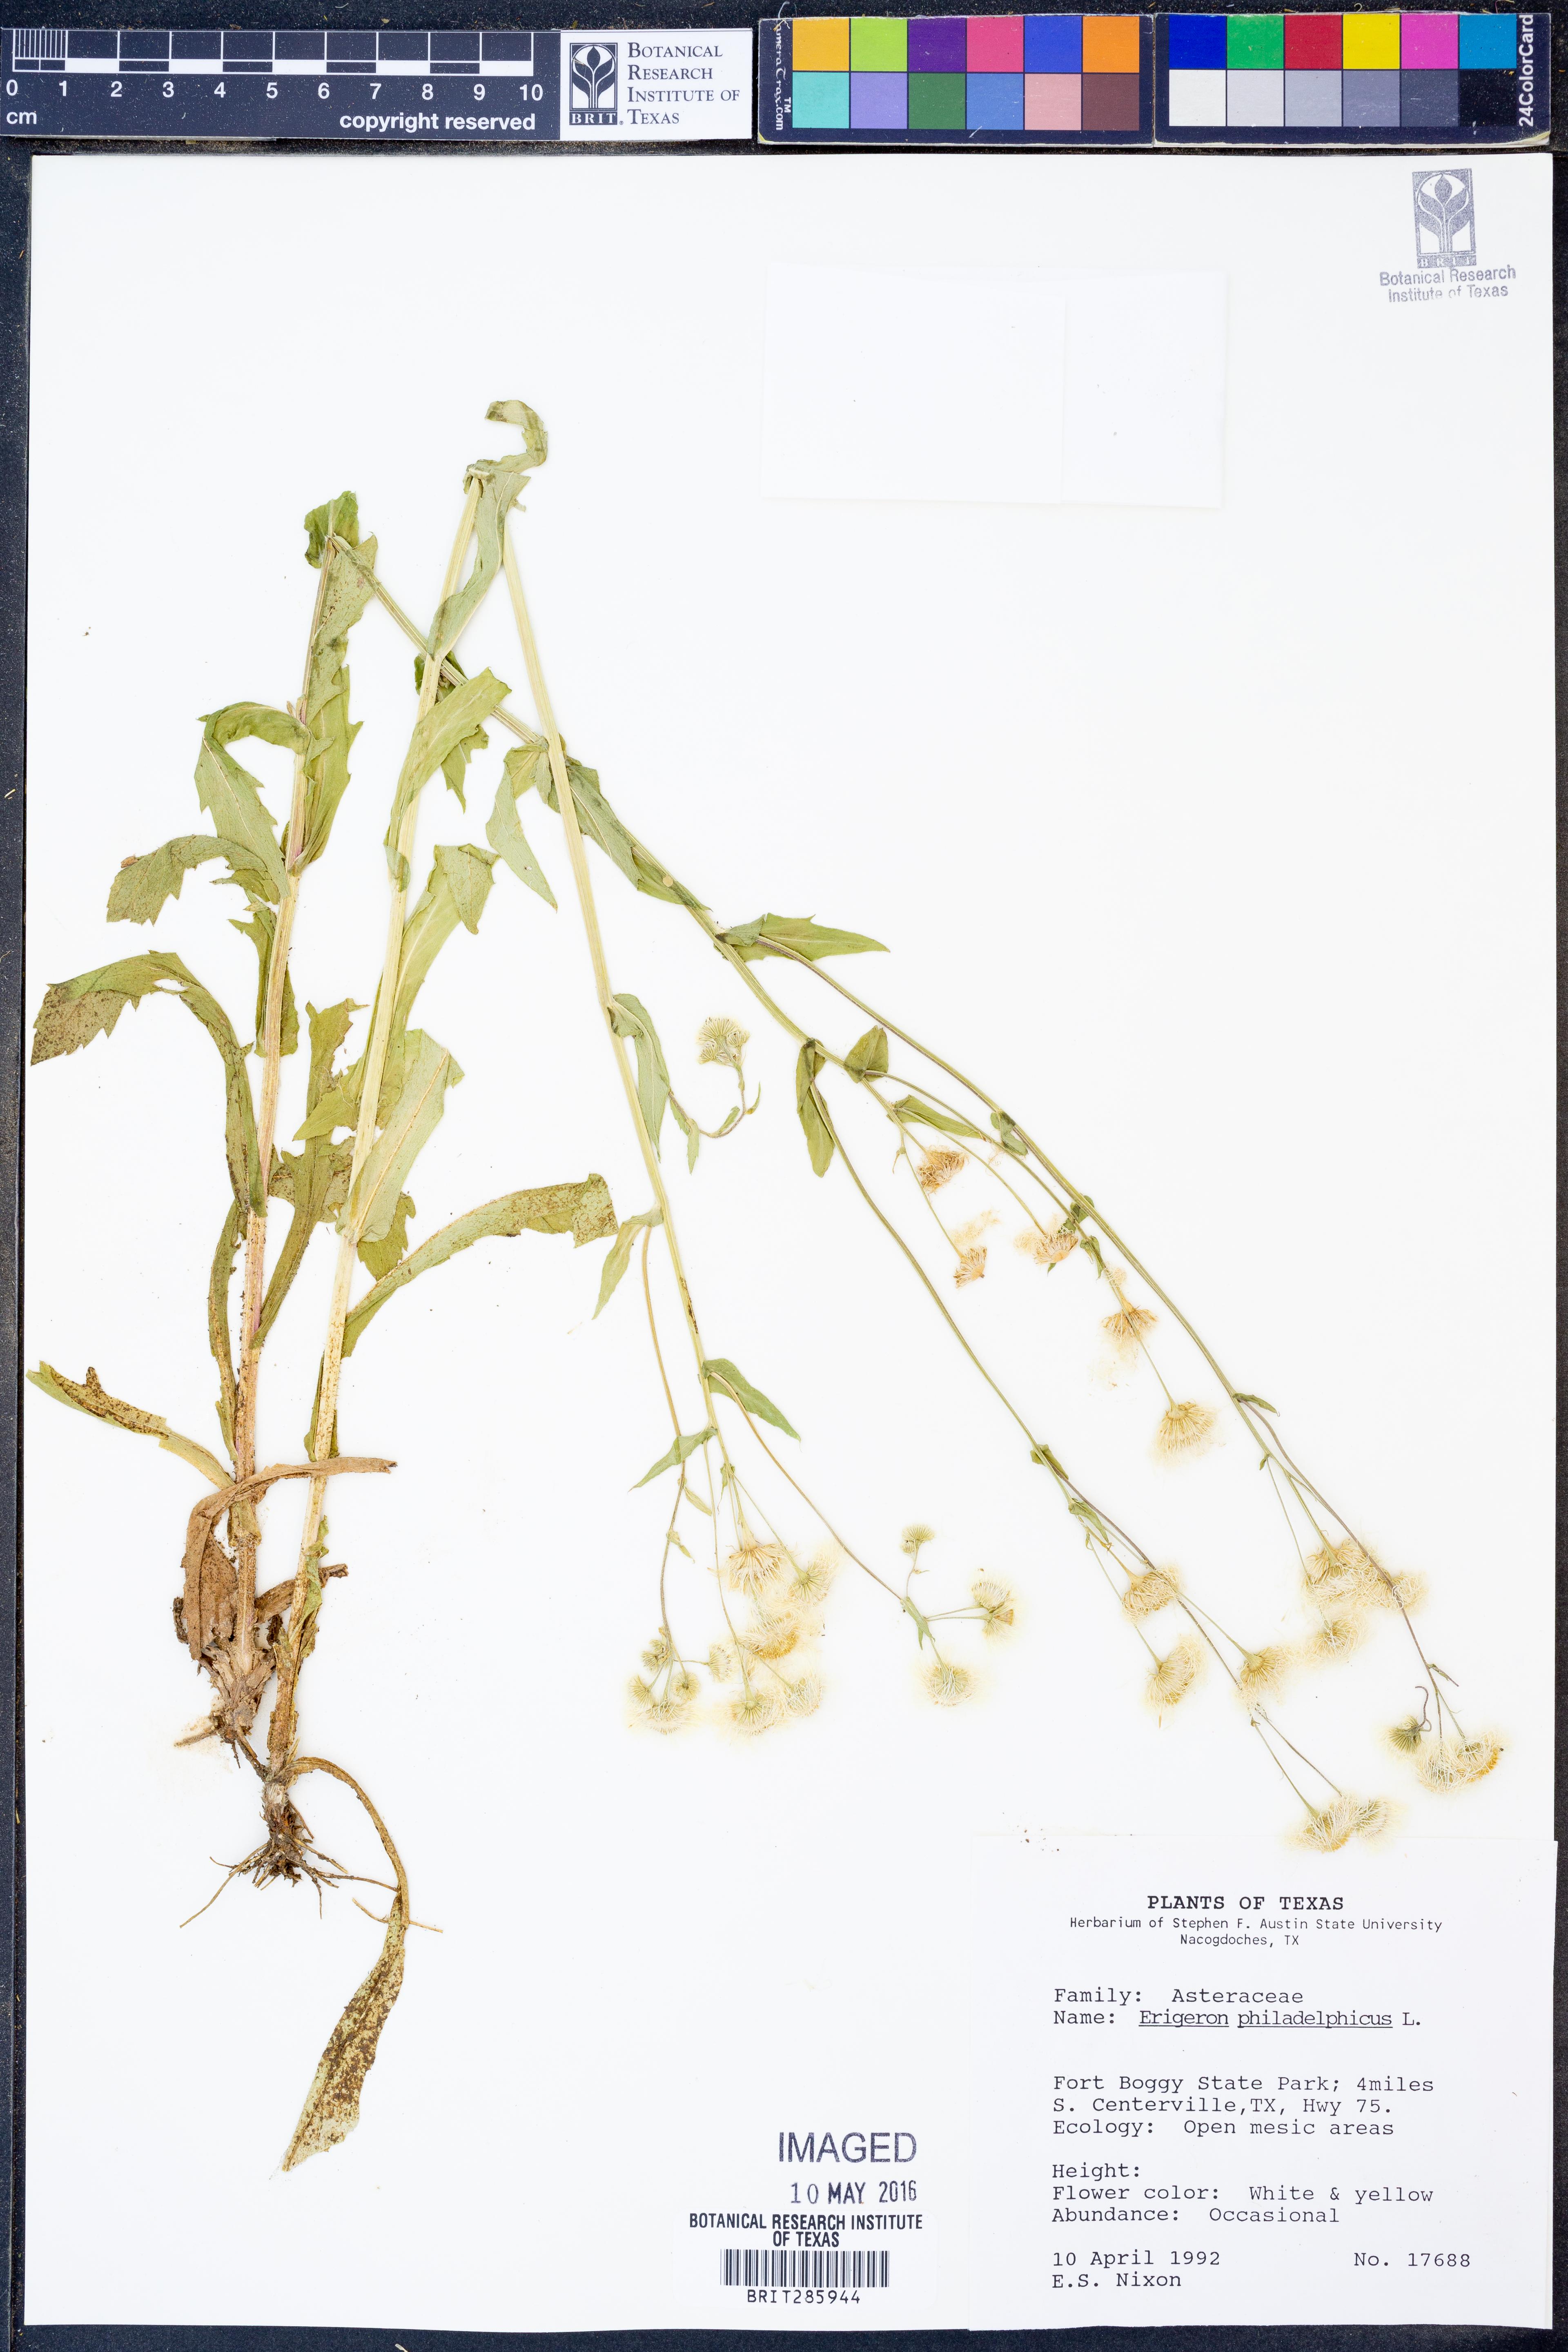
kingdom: Plantae
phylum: Tracheophyta
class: Magnoliopsida
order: Asterales
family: Asteraceae
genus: Erigeron
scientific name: Erigeron philadelphicus
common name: Robin's-plantain
